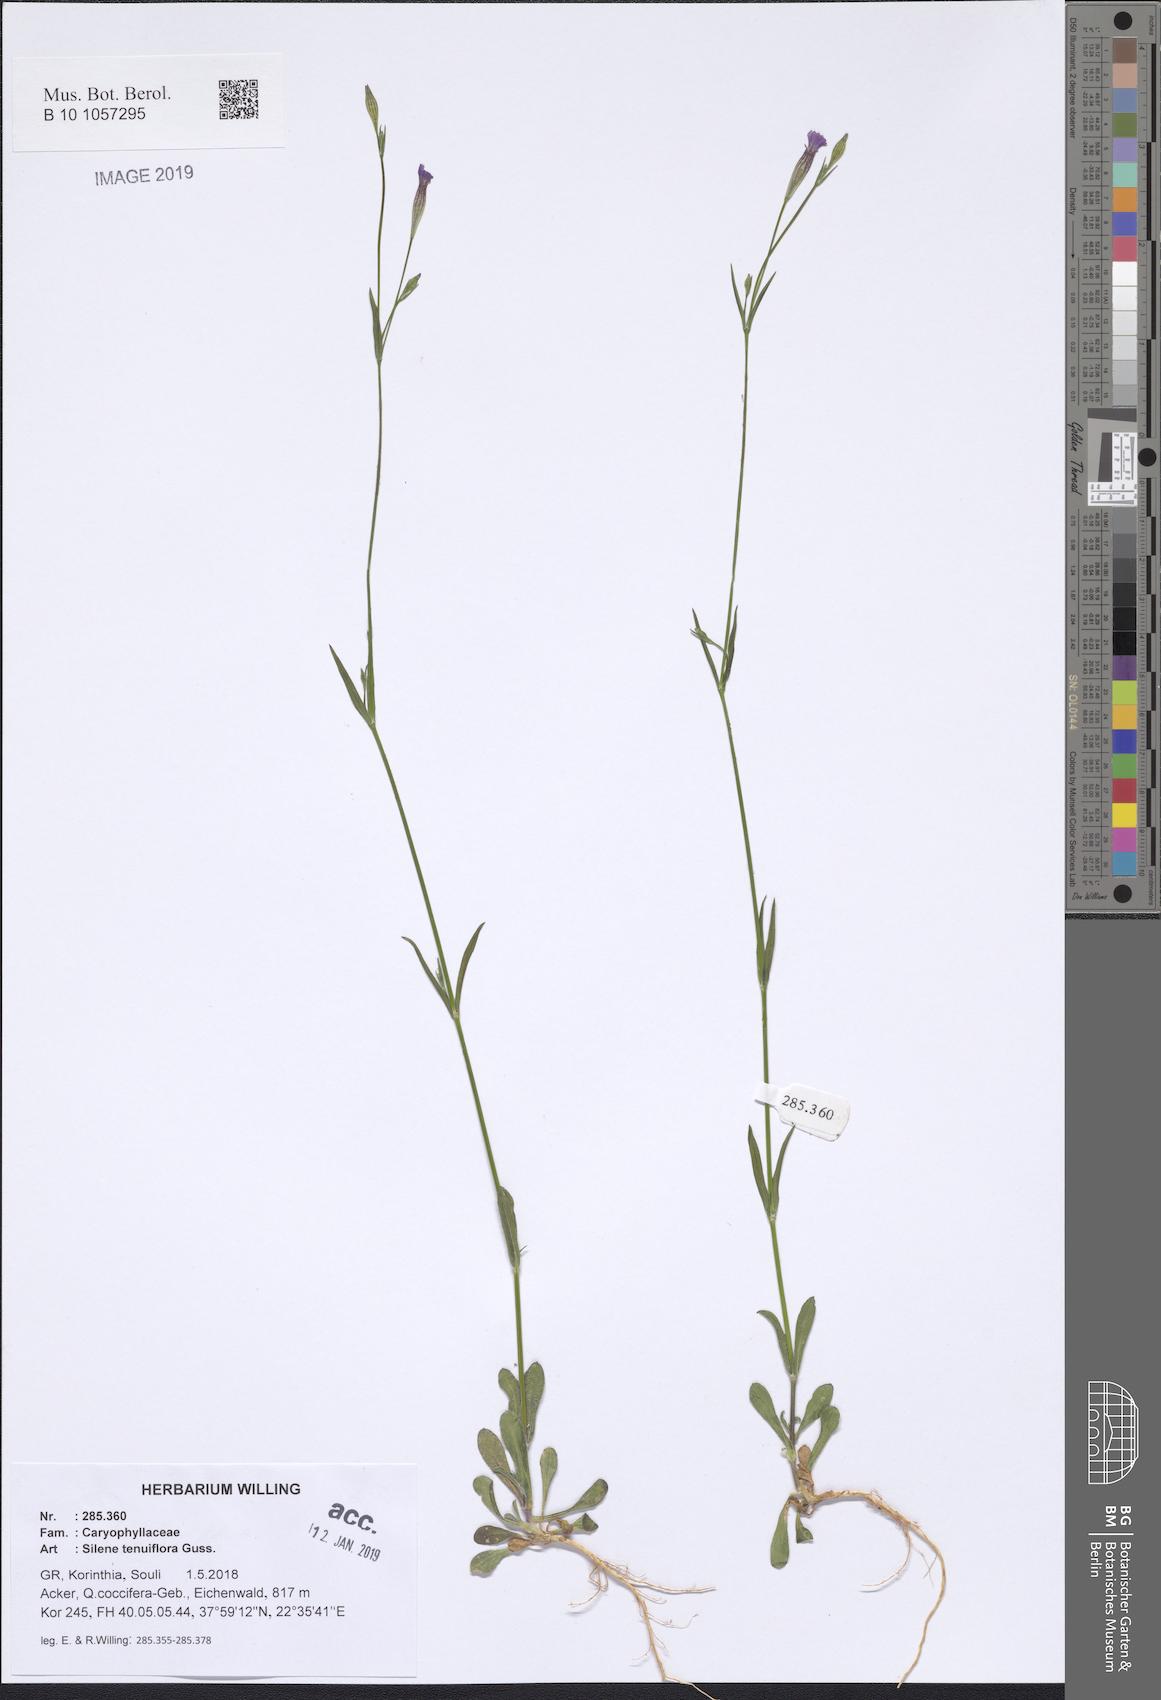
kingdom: Plantae
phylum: Tracheophyta
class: Magnoliopsida
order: Caryophyllales
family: Caryophyllaceae
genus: Silene
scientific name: Silene tenuiflora
